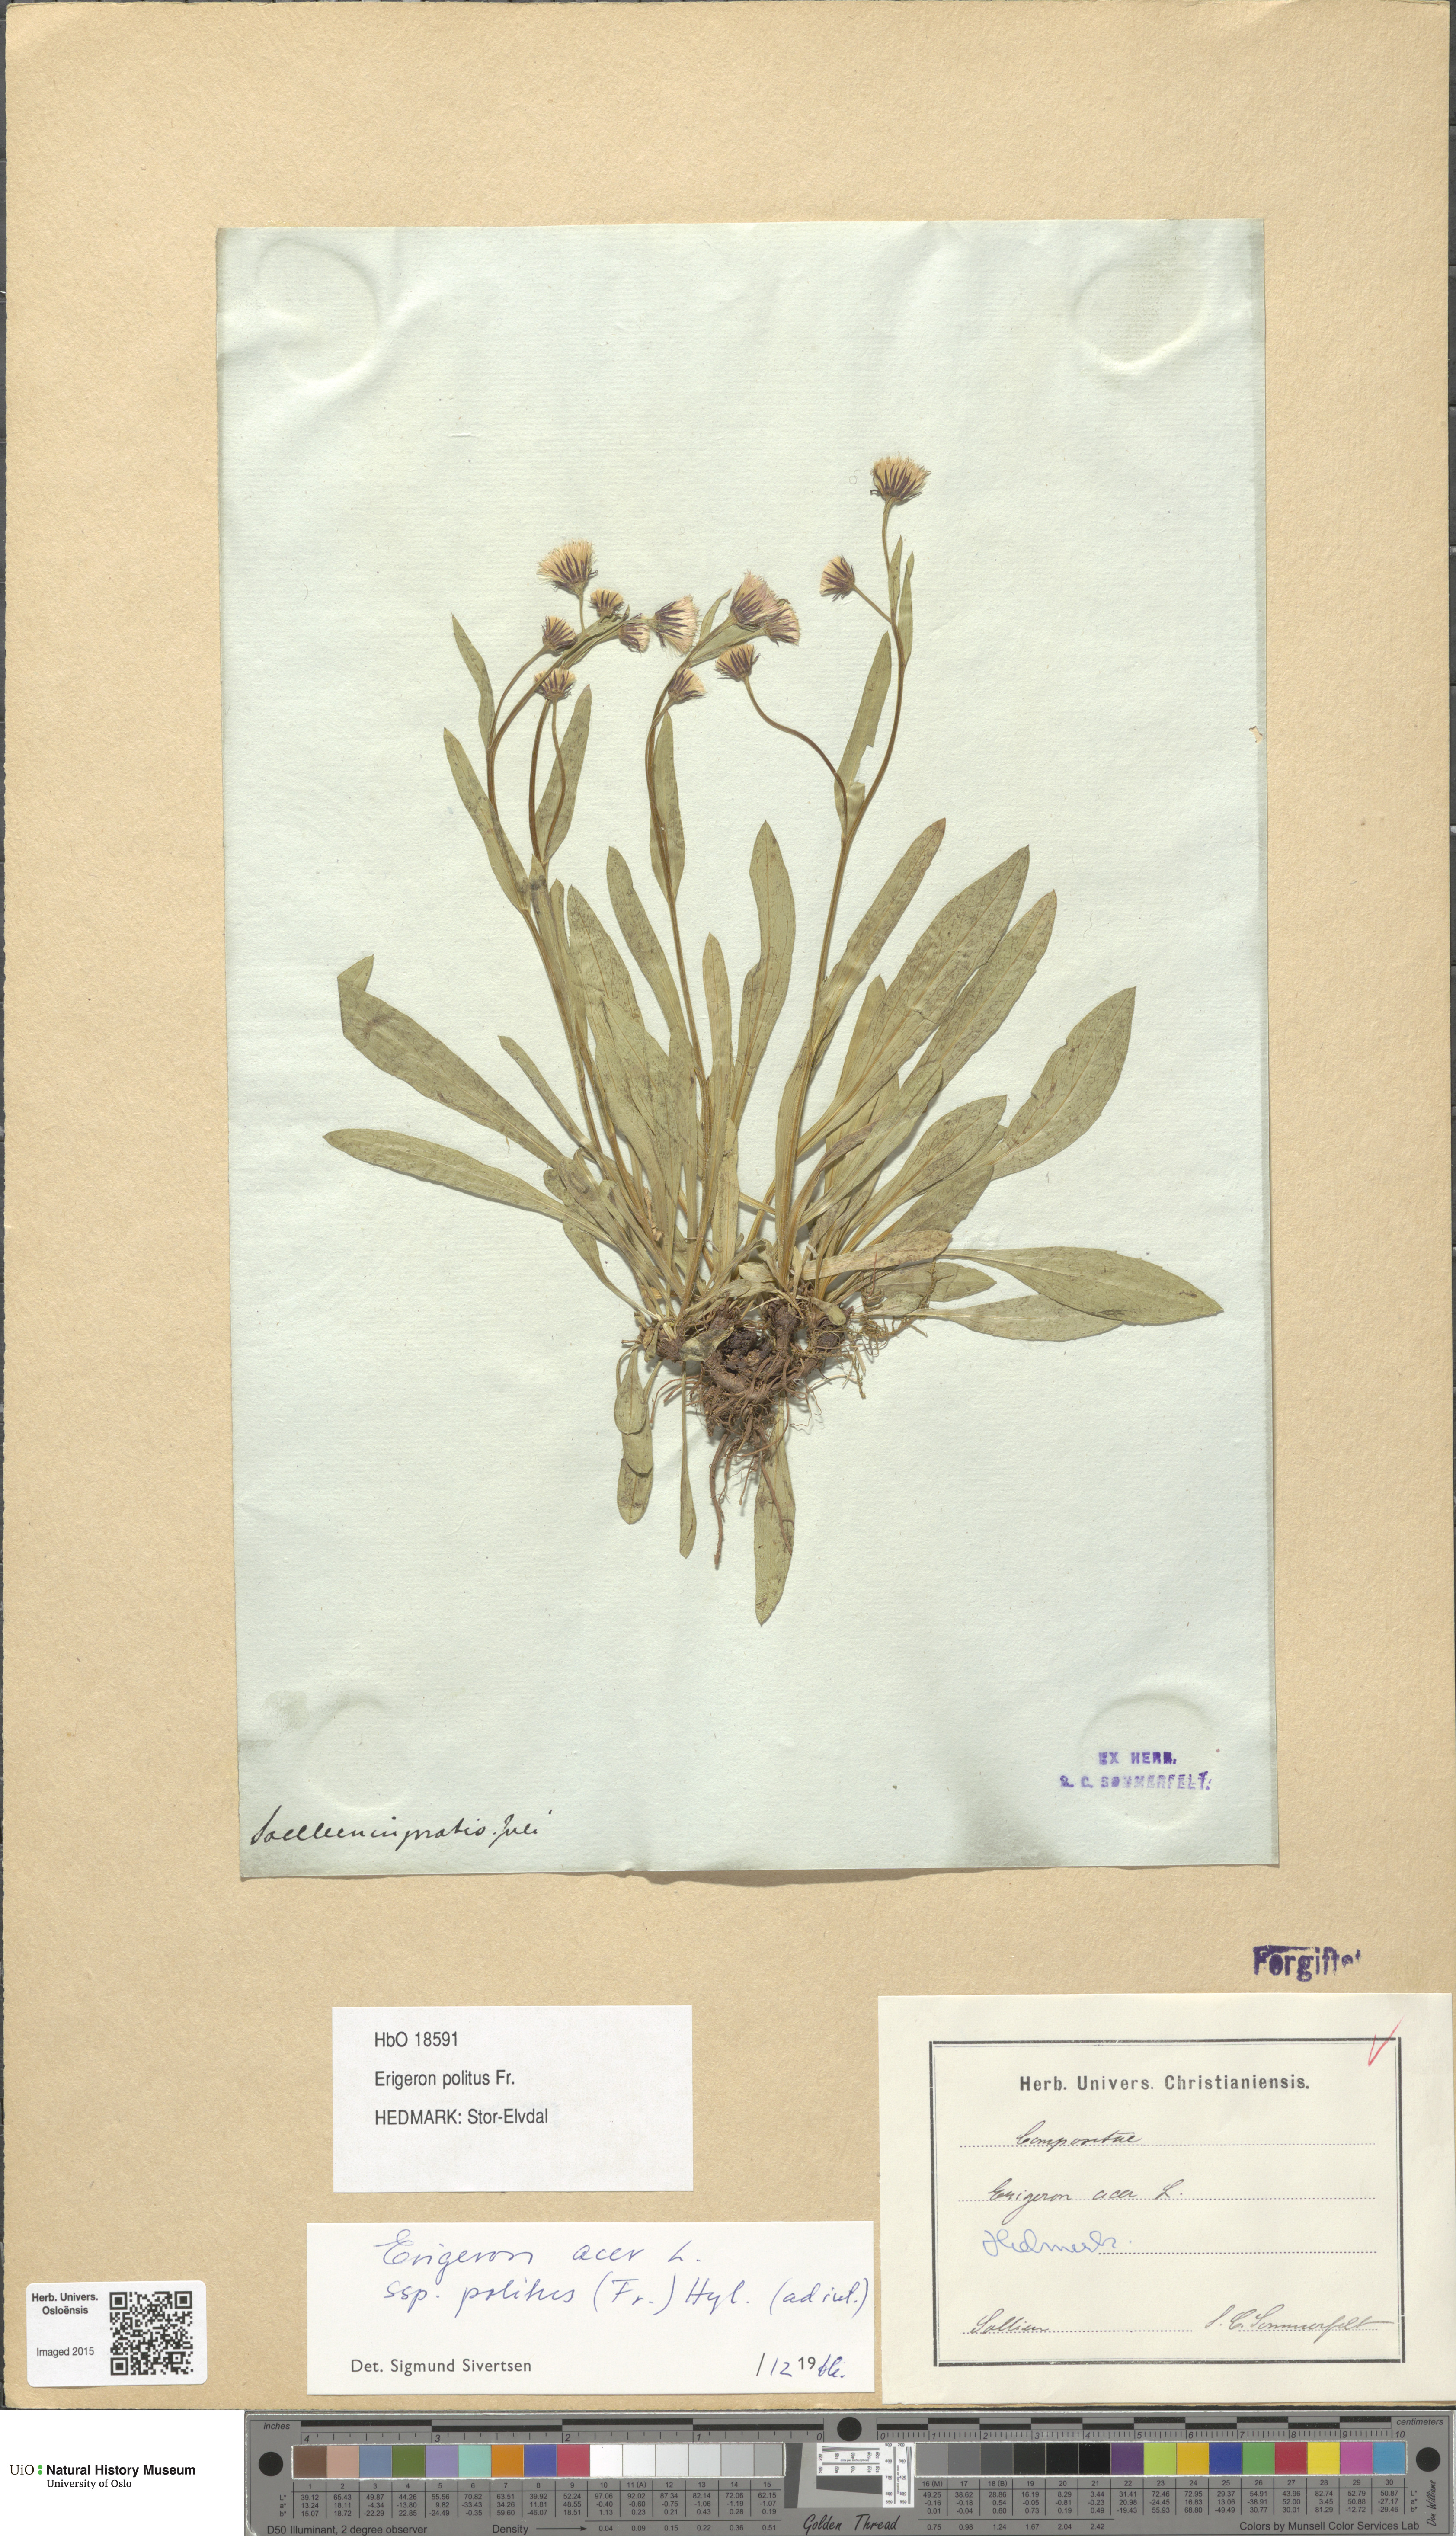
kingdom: Plantae
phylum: Tracheophyta
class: Magnoliopsida
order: Asterales
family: Asteraceae
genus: Erigeron
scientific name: Erigeron politus
